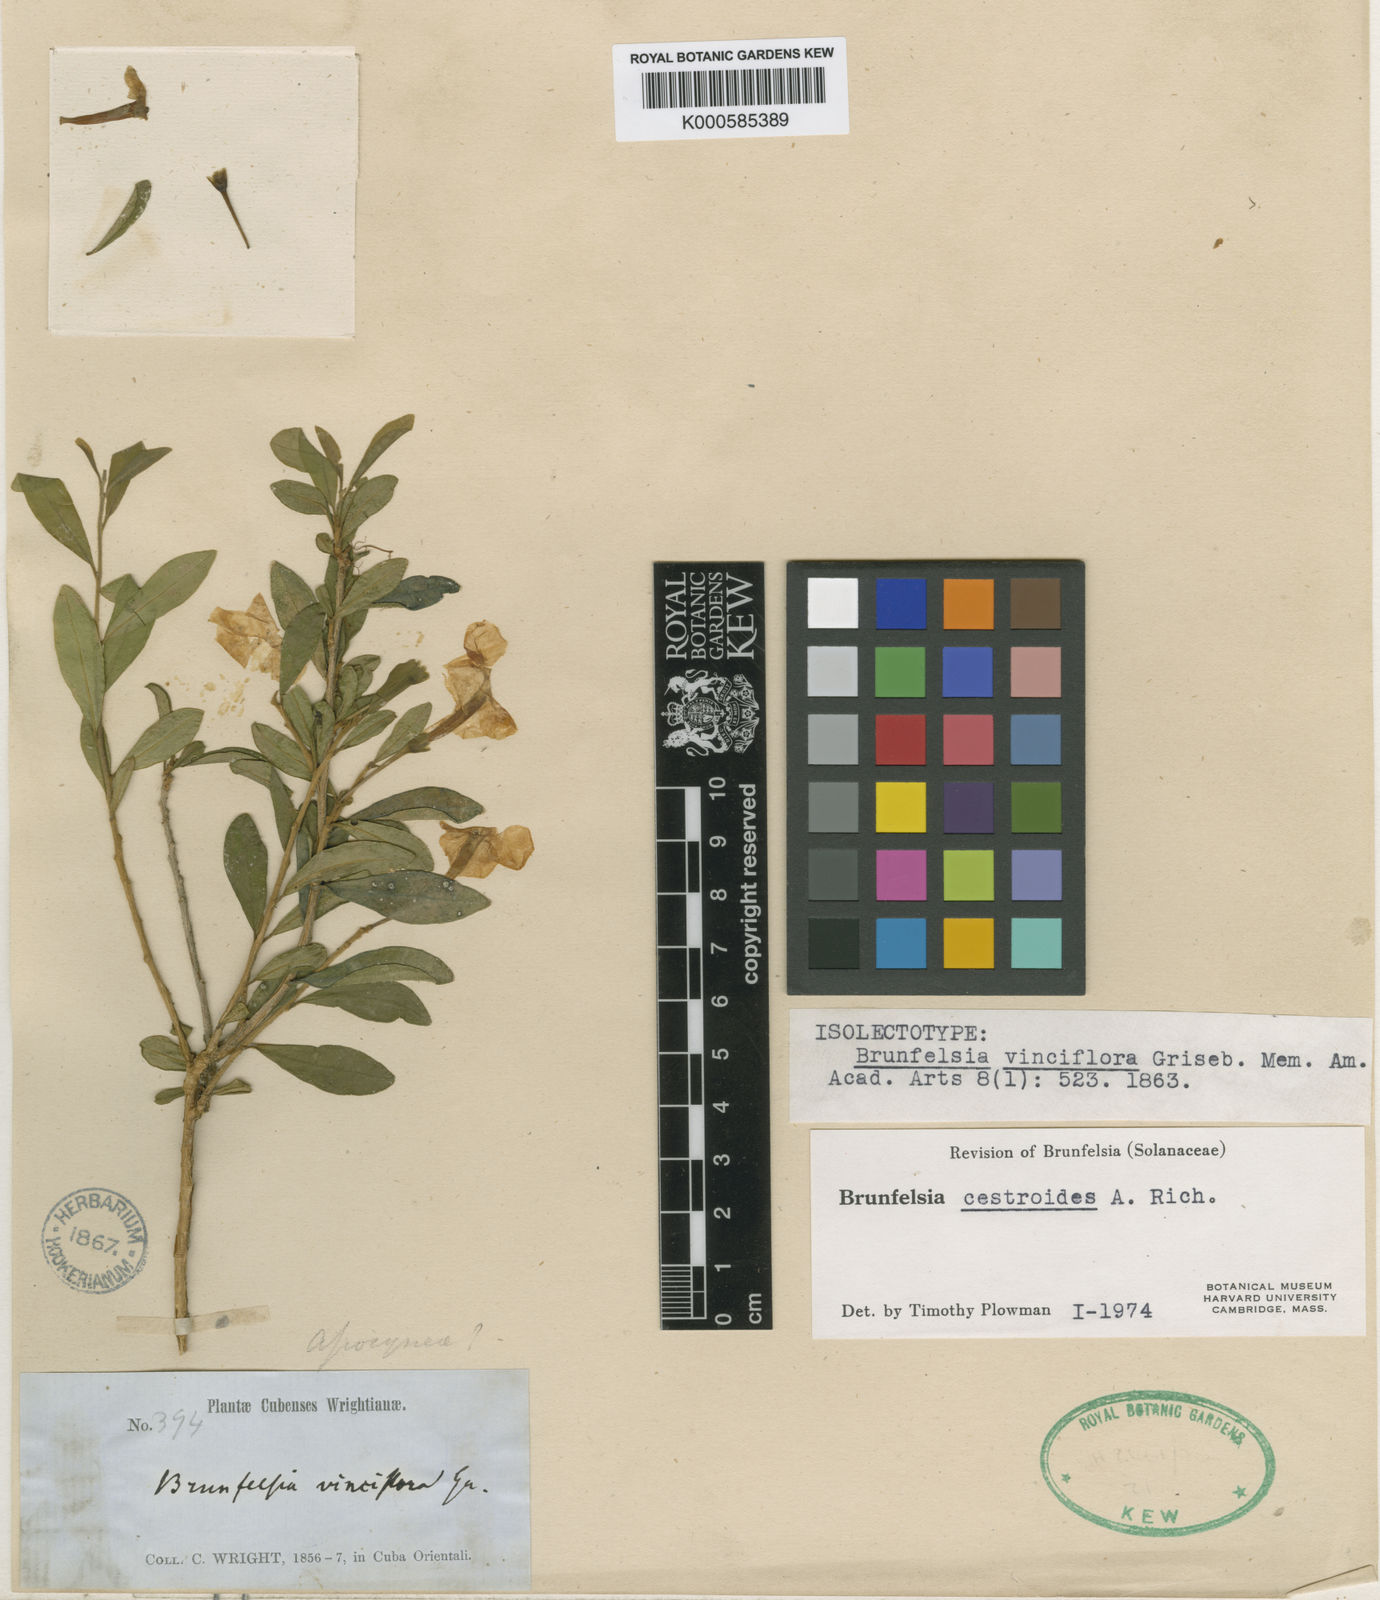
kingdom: Plantae
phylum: Tracheophyta
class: Magnoliopsida
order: Solanales
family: Solanaceae
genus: Brunfelsia
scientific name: Brunfelsia cestroides
